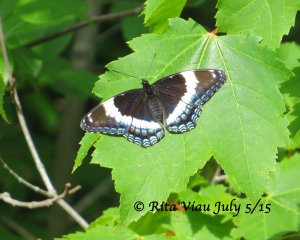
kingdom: Animalia
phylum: Arthropoda
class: Insecta
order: Lepidoptera
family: Nymphalidae
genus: Limenitis
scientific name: Limenitis arthemis
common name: Red-spotted Admiral
